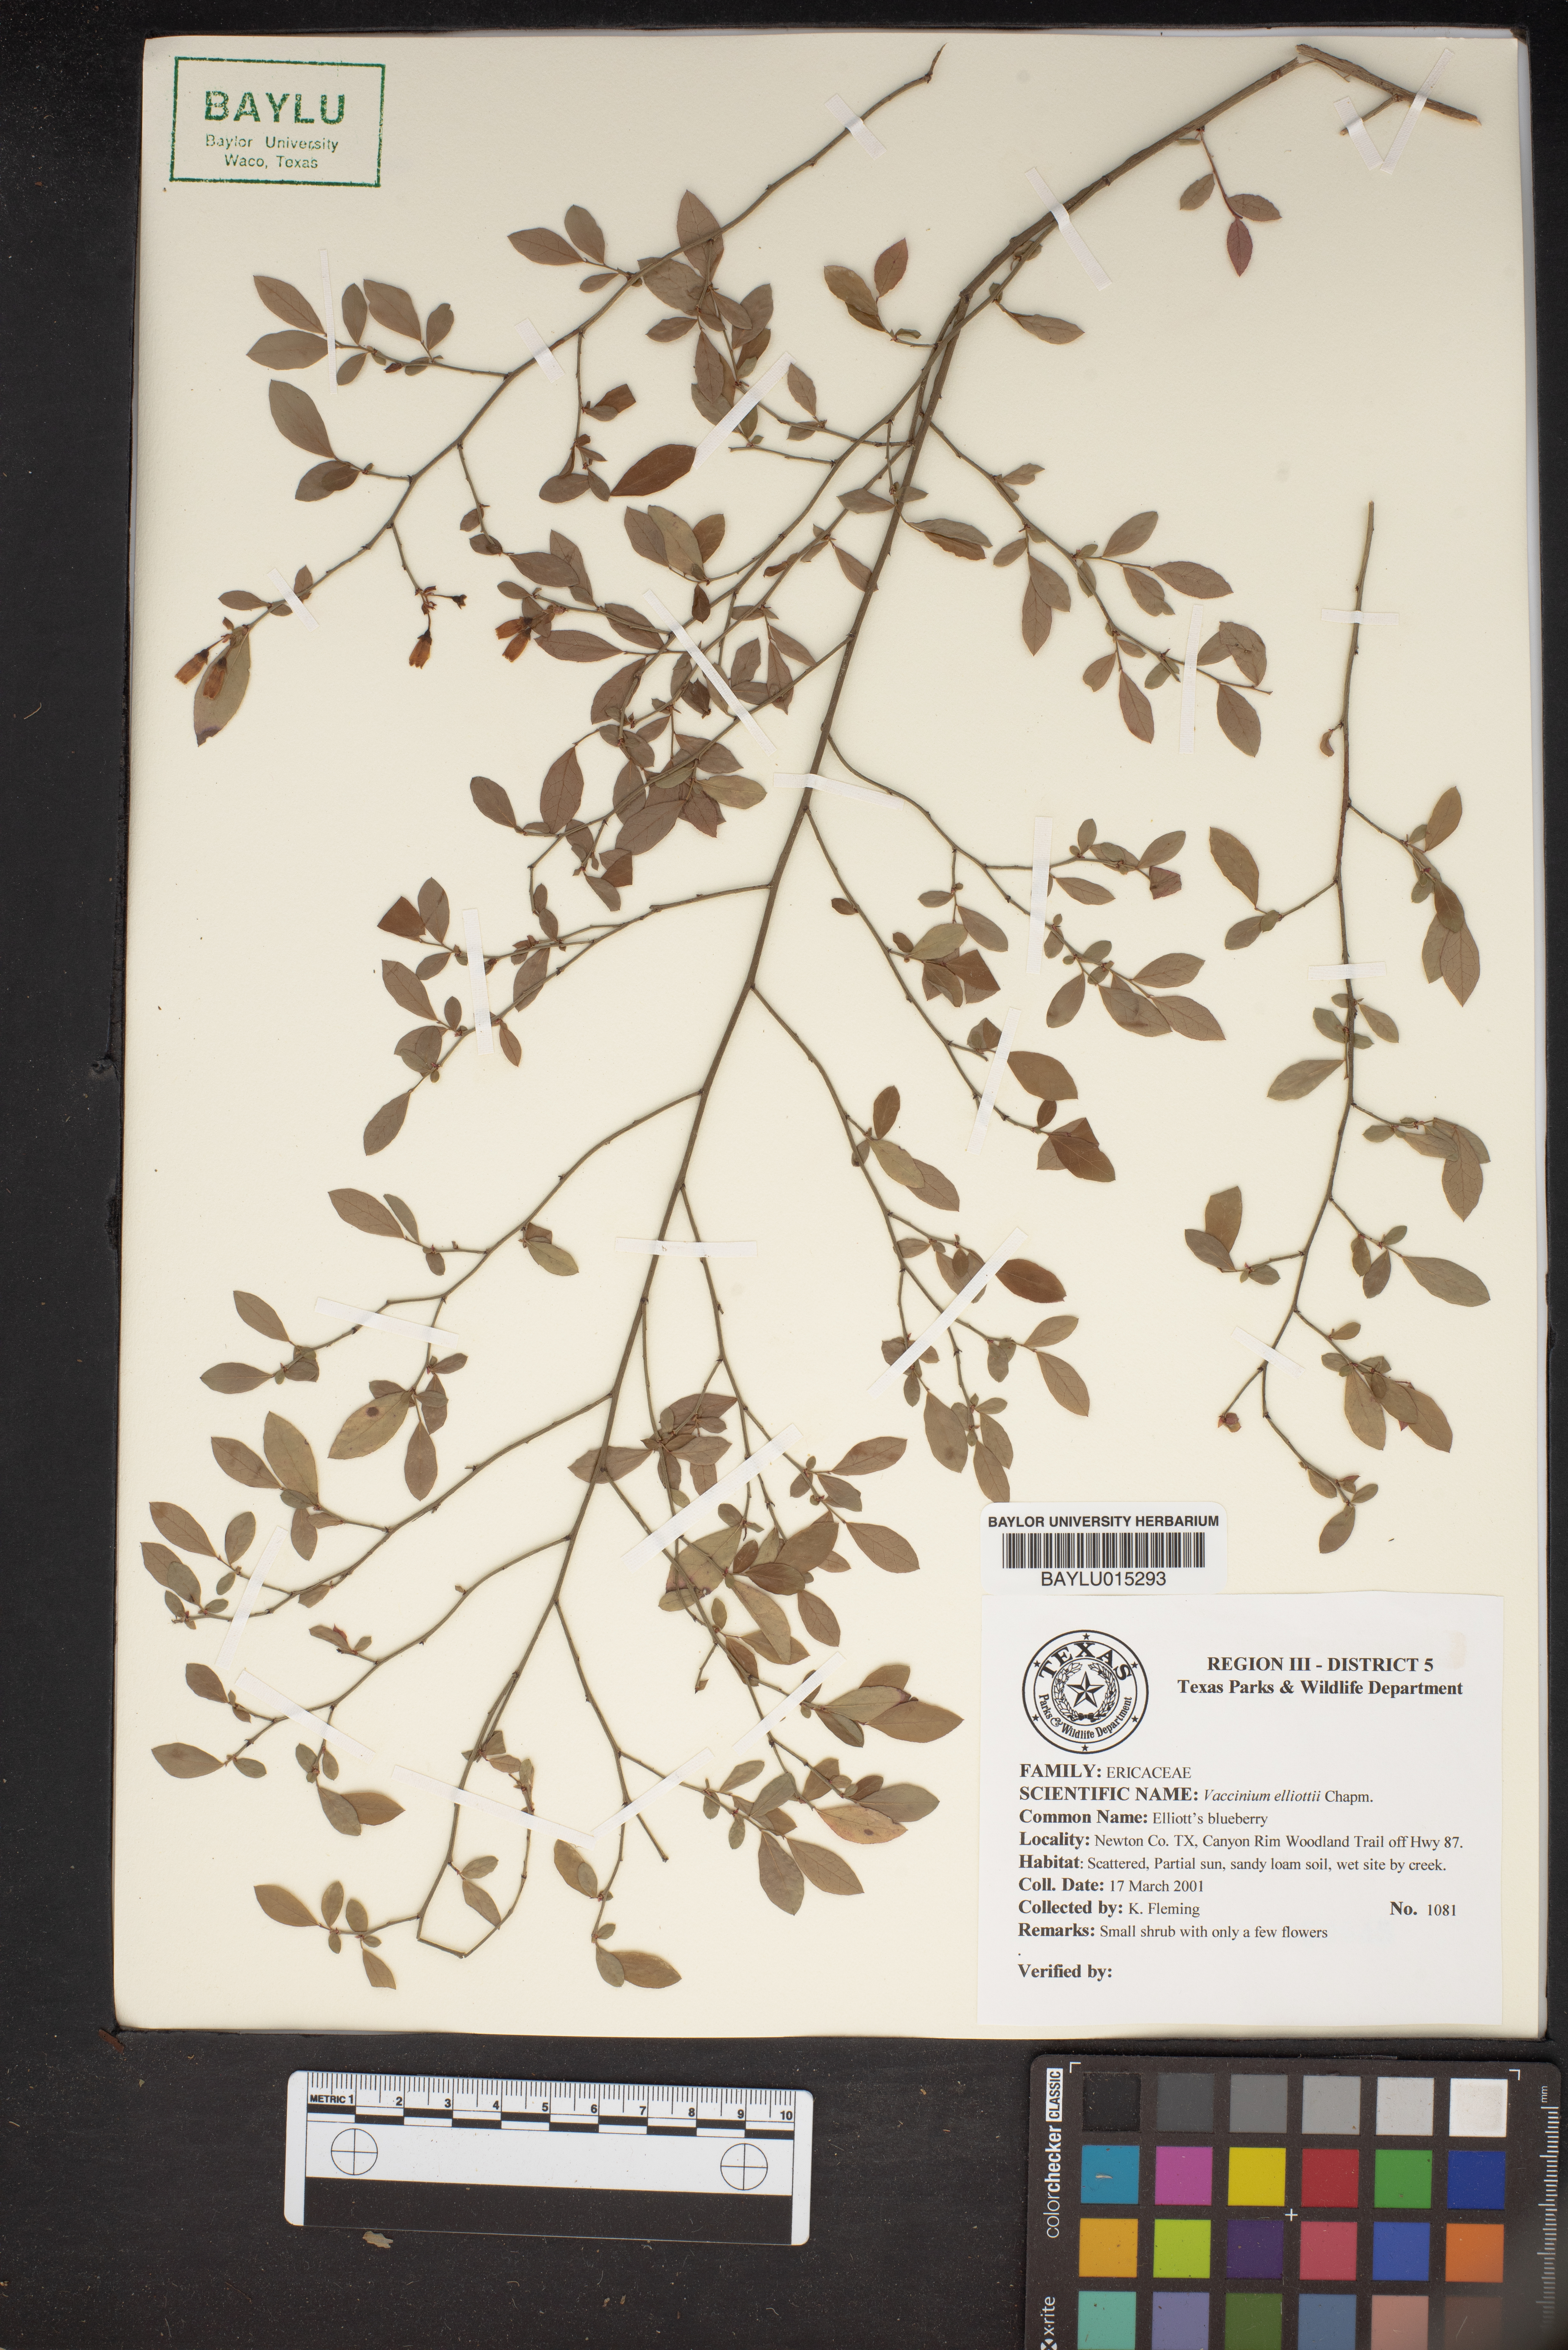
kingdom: Plantae
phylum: Tracheophyta
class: Magnoliopsida
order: Ericales
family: Ericaceae
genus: Vaccinium
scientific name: Vaccinium corymbosum
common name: Blueberry
